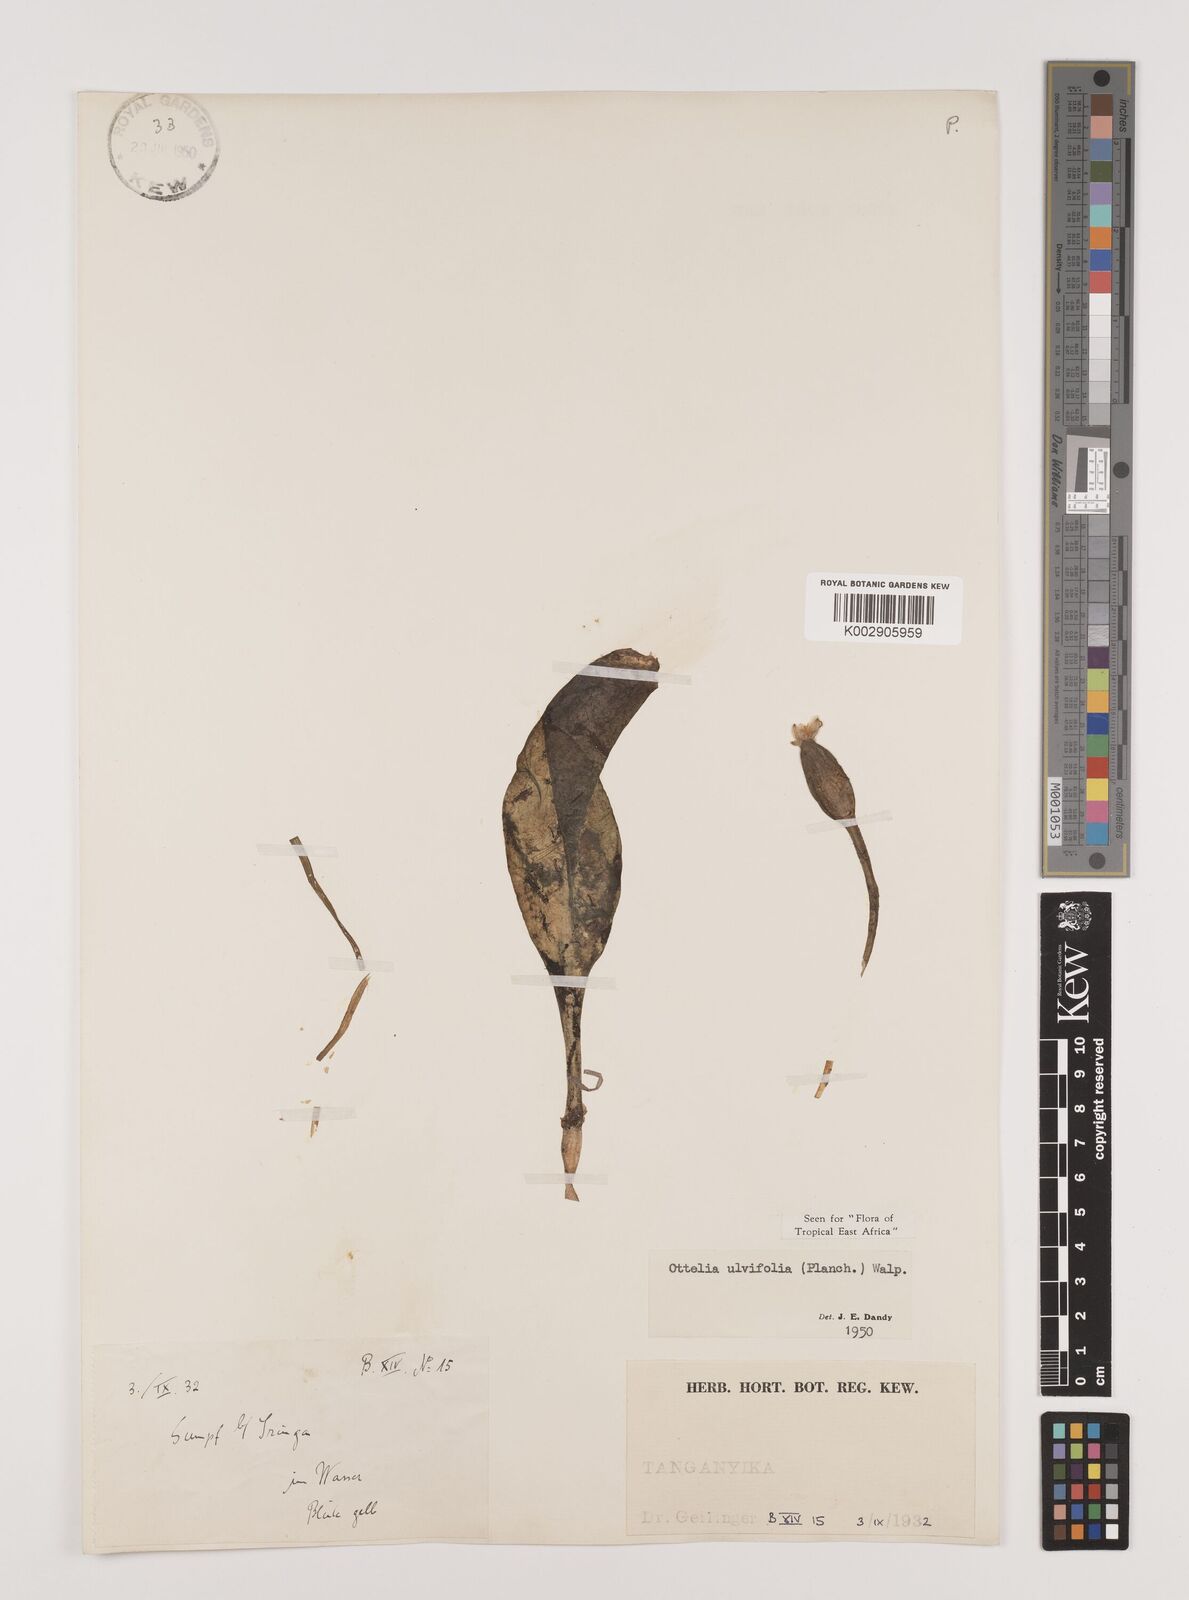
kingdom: Plantae
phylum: Tracheophyta
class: Liliopsida
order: Alismatales
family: Hydrocharitaceae
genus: Ottelia
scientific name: Ottelia ulvifolia
